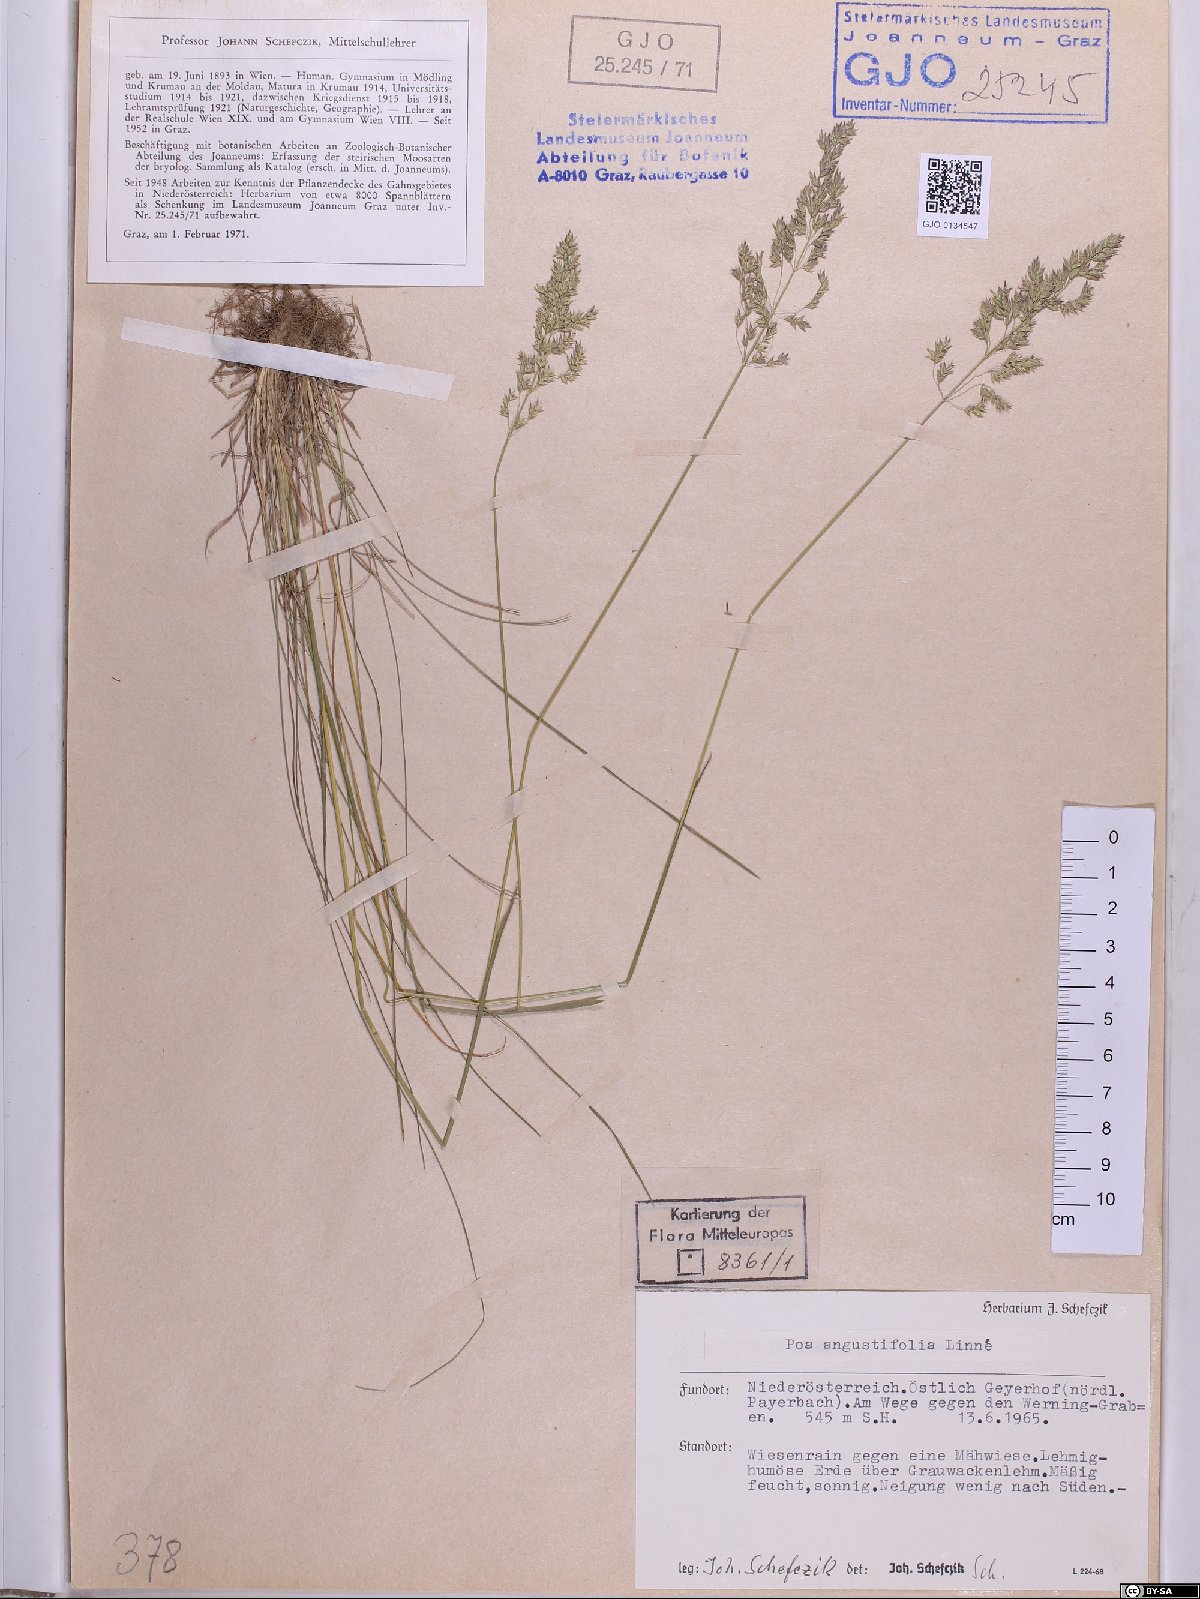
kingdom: Plantae
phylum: Tracheophyta
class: Liliopsida
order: Poales
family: Poaceae
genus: Poa
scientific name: Poa angustifolia
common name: Narrow-leaved meadow-grass
